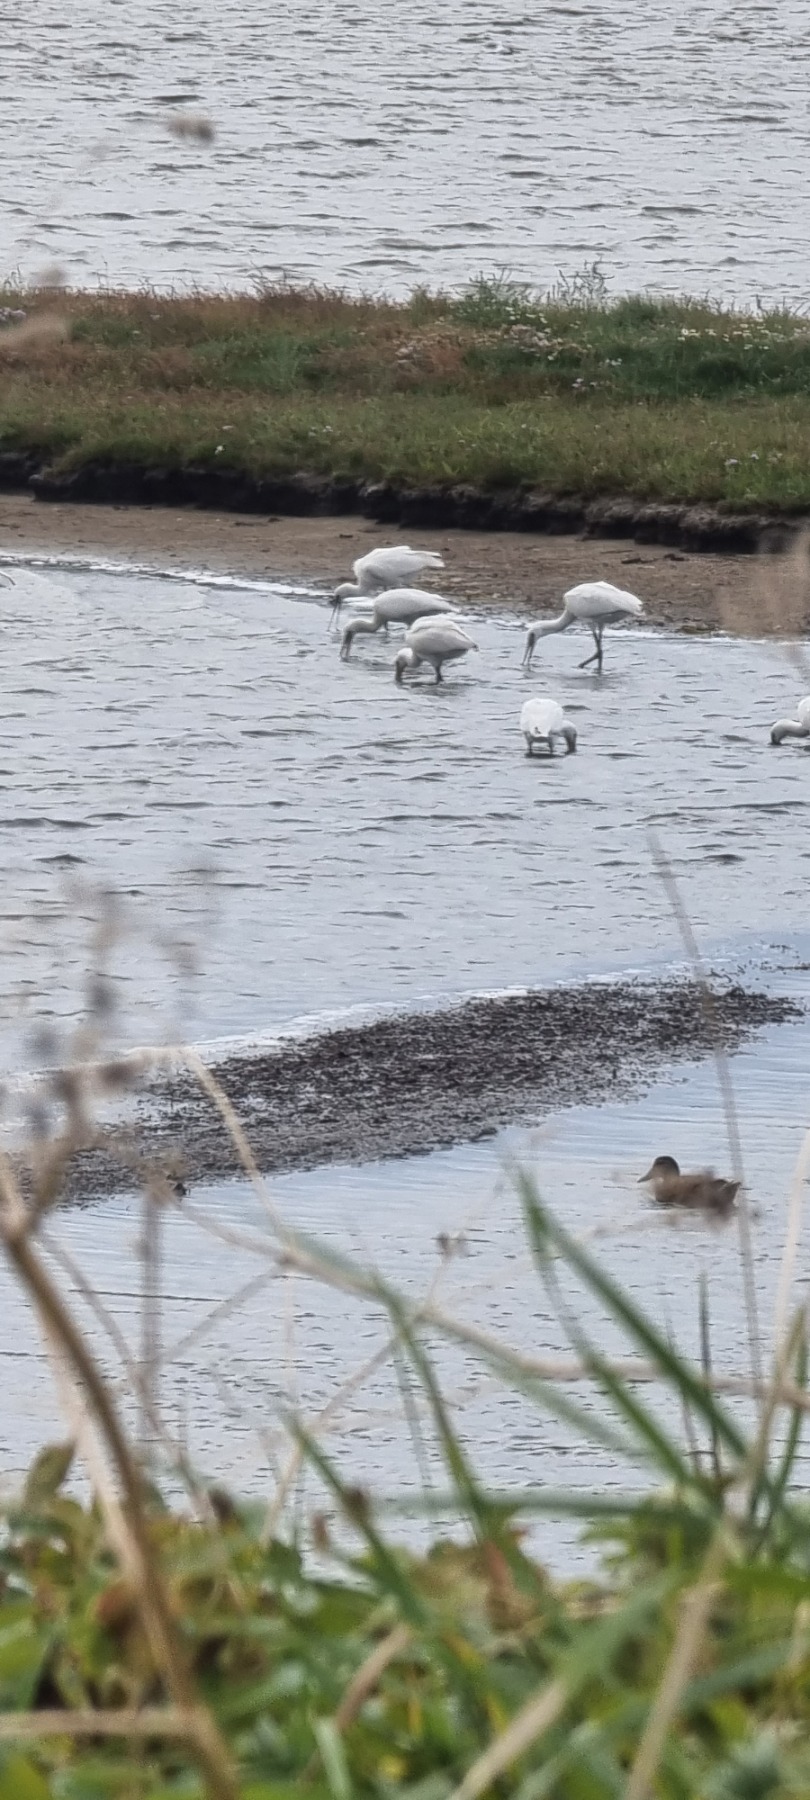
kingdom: Animalia
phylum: Chordata
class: Aves
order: Pelecaniformes
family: Threskiornithidae
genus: Platalea
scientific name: Platalea leucorodia
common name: Skestork
